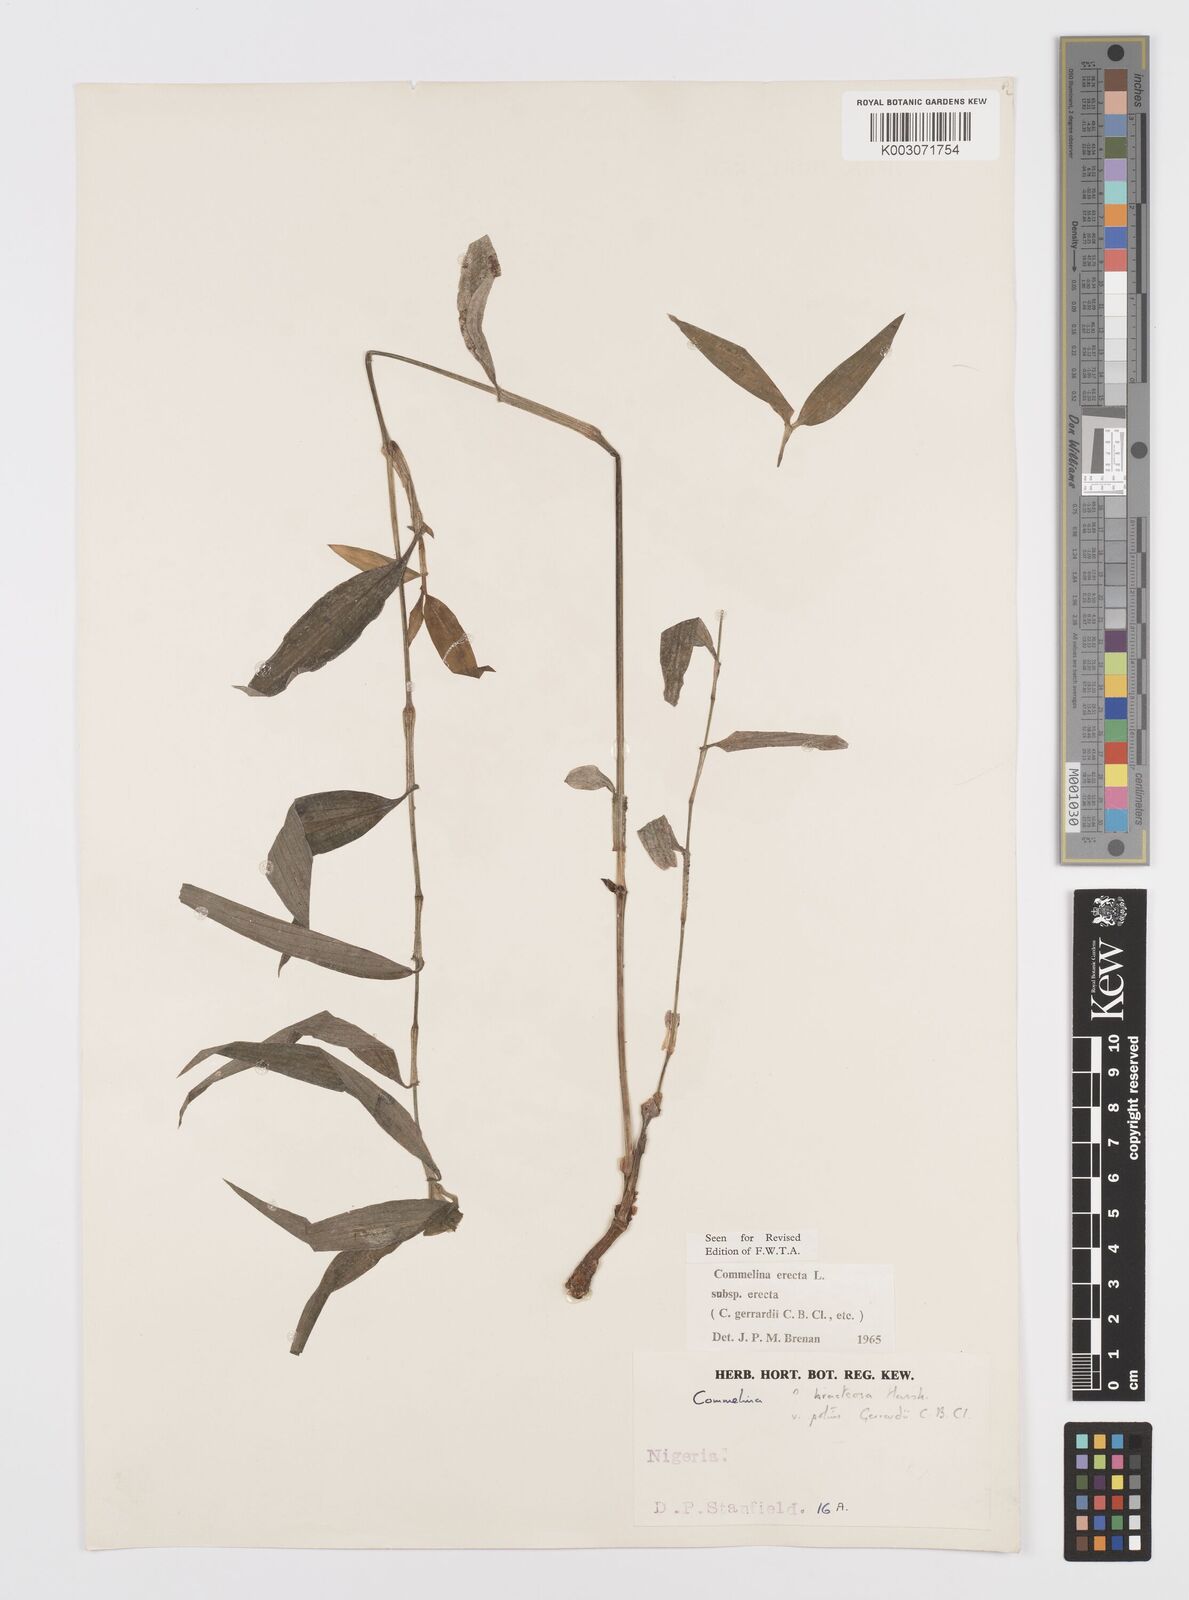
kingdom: Plantae
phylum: Tracheophyta
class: Liliopsida
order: Commelinales
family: Commelinaceae
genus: Commelina
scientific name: Commelina erecta
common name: Blousel blommetjie
